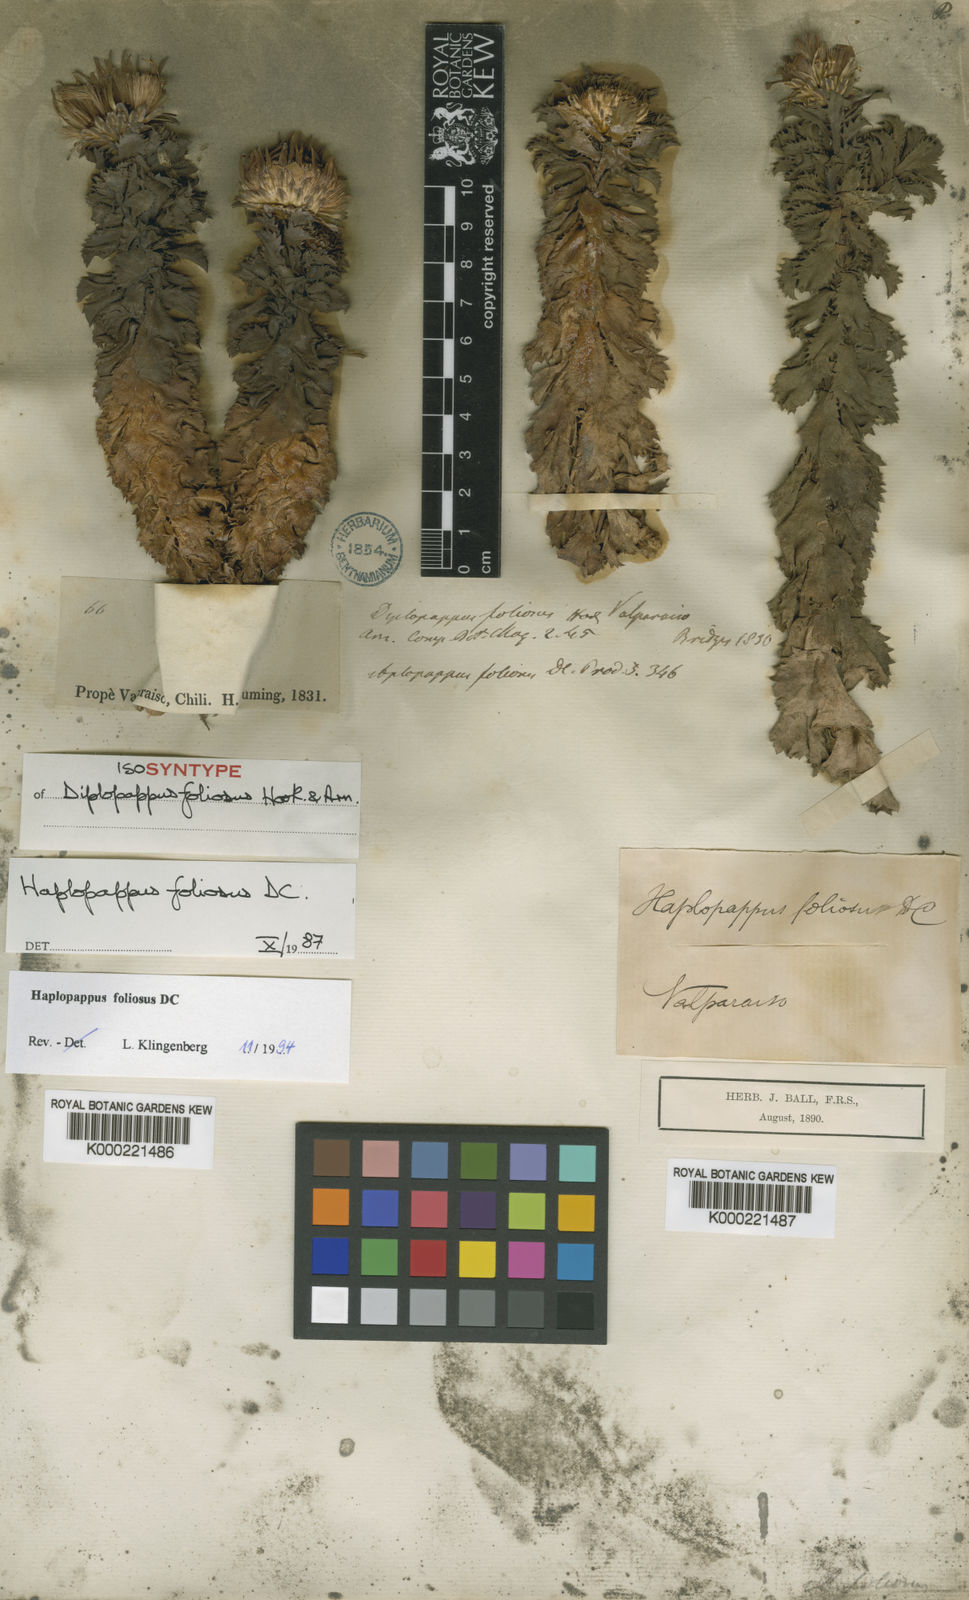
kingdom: Plantae
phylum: Tracheophyta
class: Magnoliopsida
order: Asterales
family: Asteraceae
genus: Haplopappus
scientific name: Haplopappus foliosus
